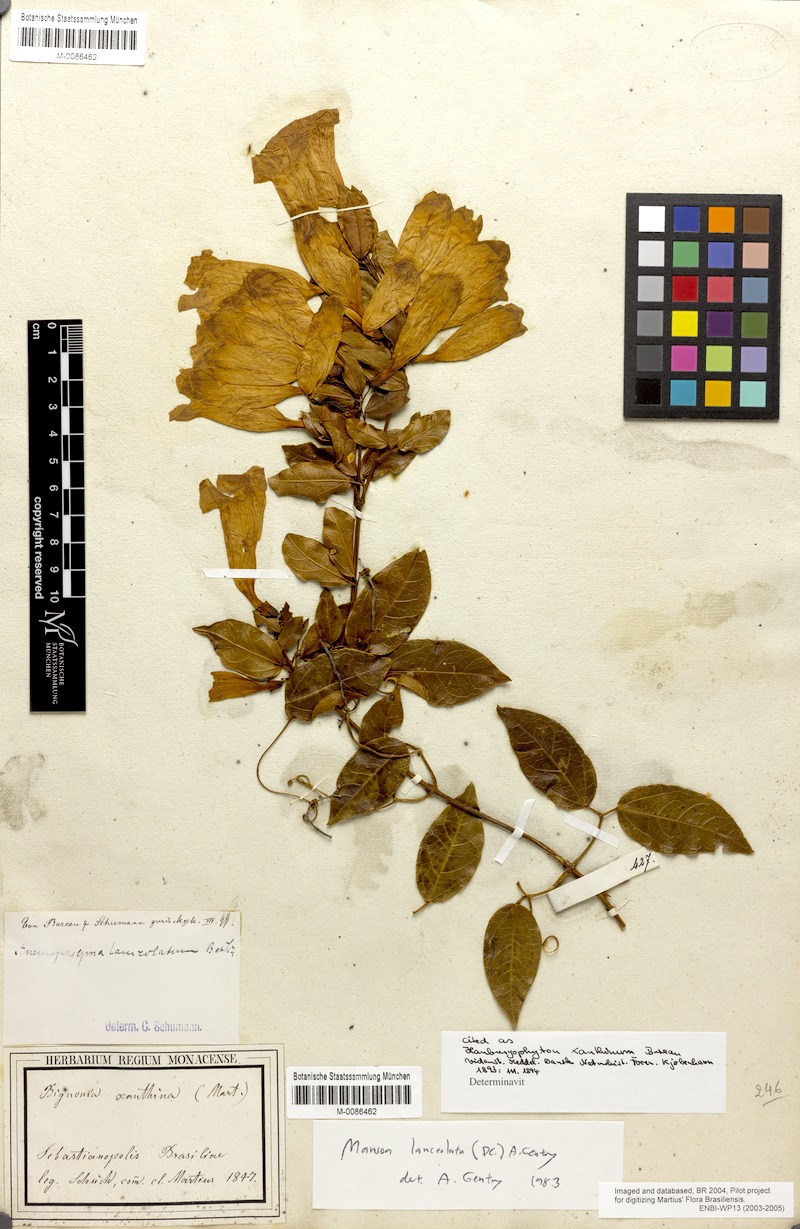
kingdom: Plantae
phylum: Tracheophyta
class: Magnoliopsida
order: Lamiales
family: Bignoniaceae
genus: Mansoa
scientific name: Mansoa lanceolata
